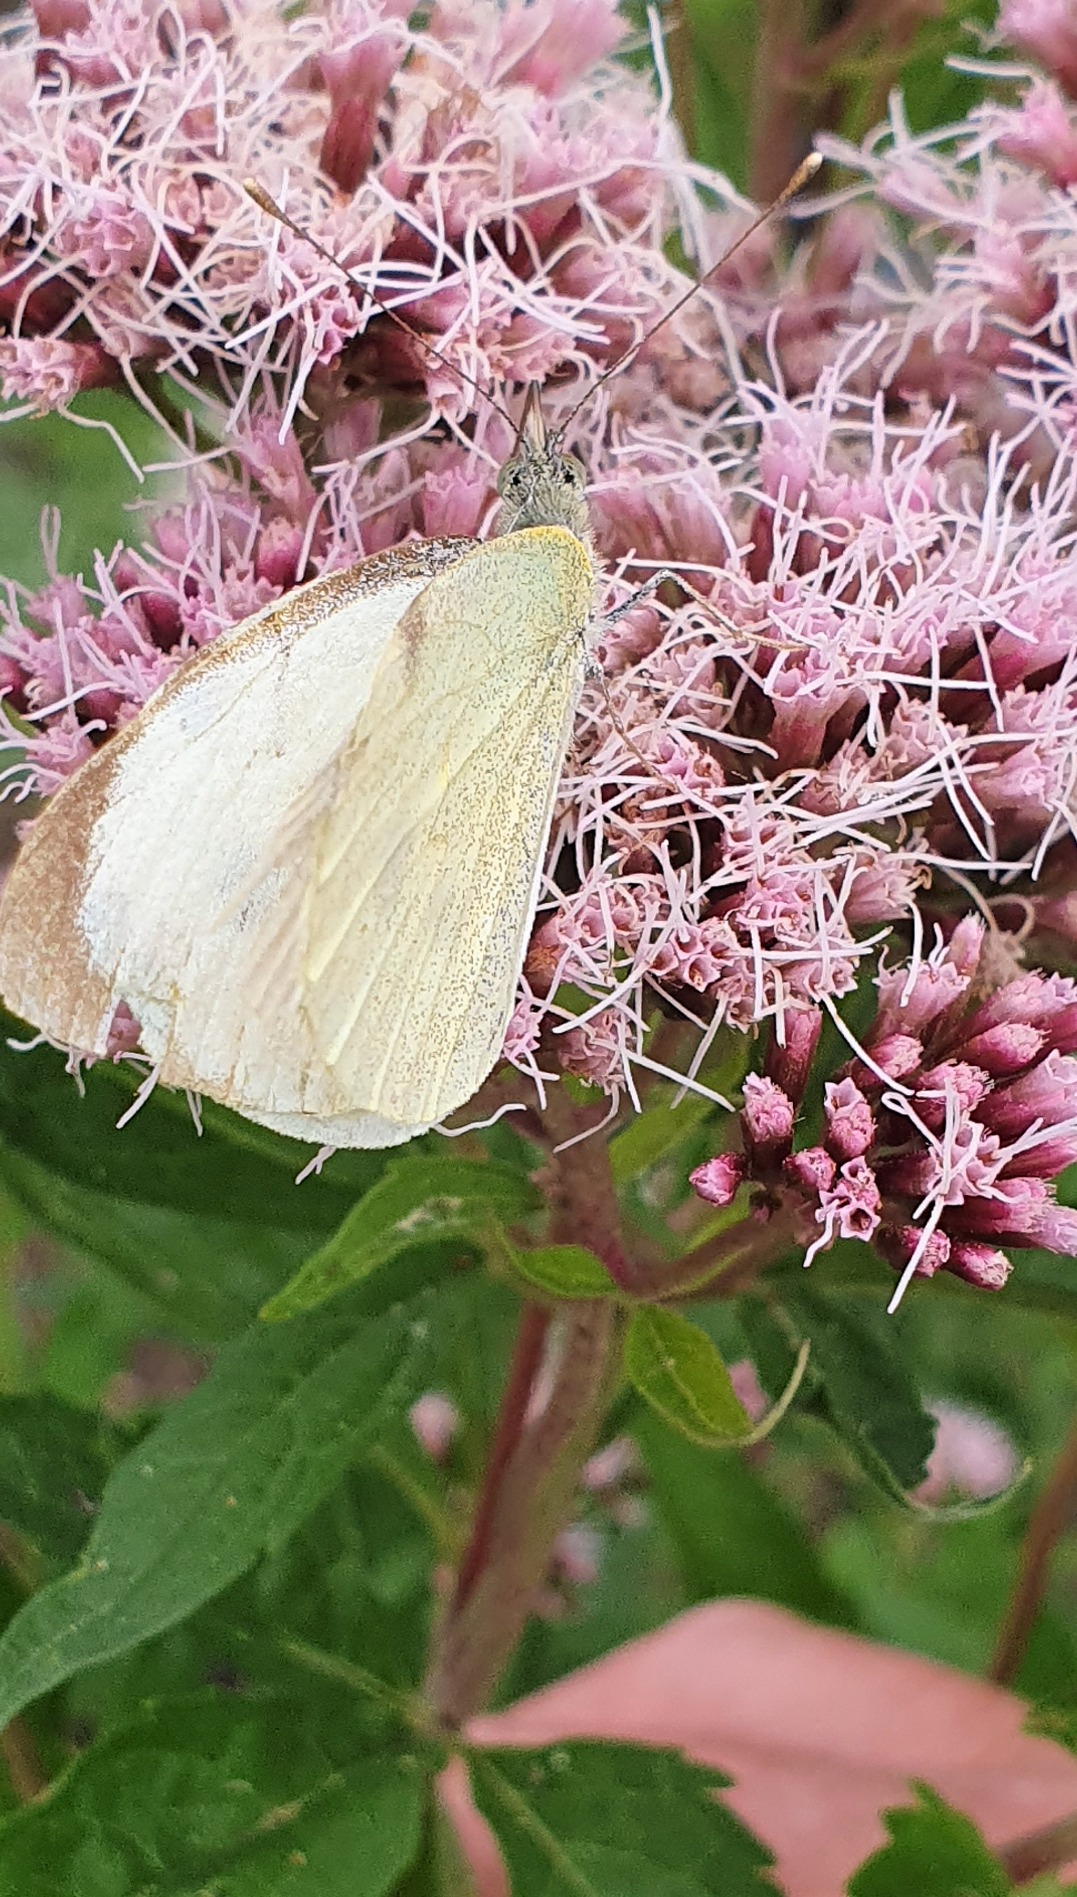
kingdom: Animalia
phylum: Arthropoda
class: Insecta
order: Lepidoptera
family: Pieridae
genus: Pieris
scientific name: Pieris brassicae
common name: Stor kålsommerfugl
